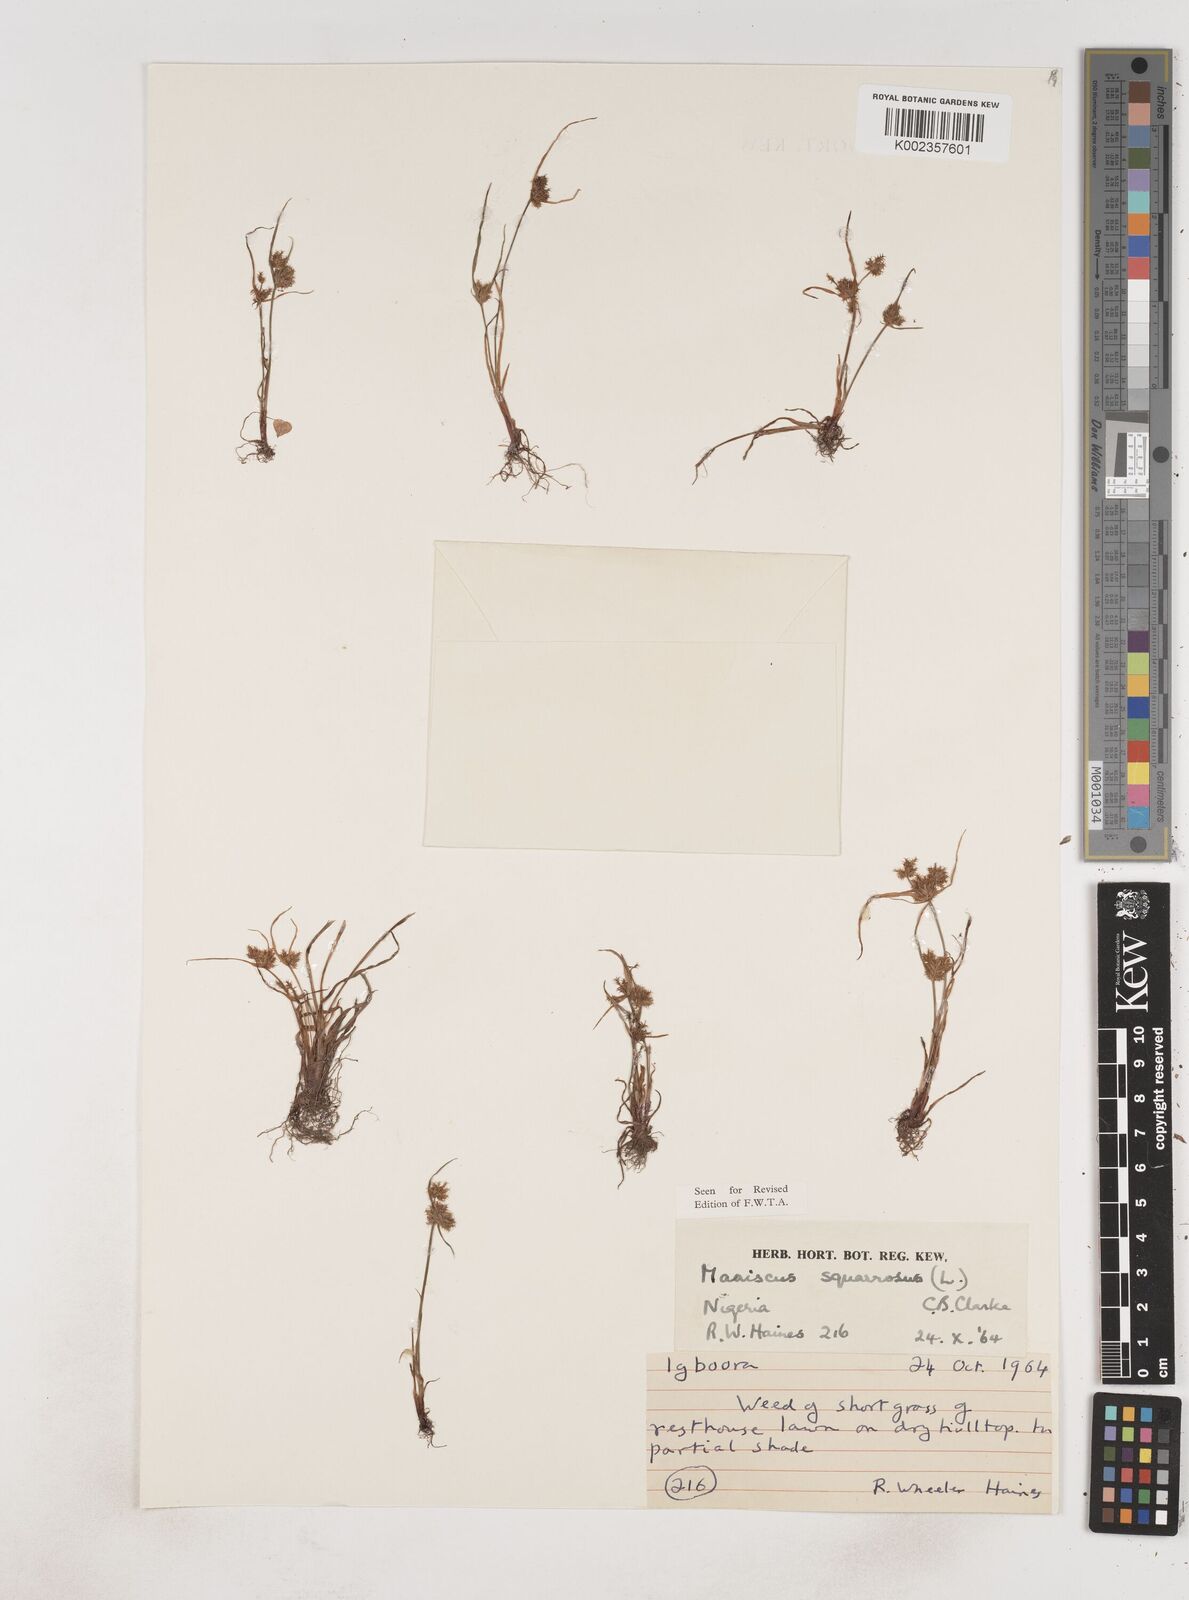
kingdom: Plantae
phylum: Tracheophyta
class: Liliopsida
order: Poales
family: Cyperaceae
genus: Cyperus
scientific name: Cyperus squarrosus
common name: Awned cyperus
